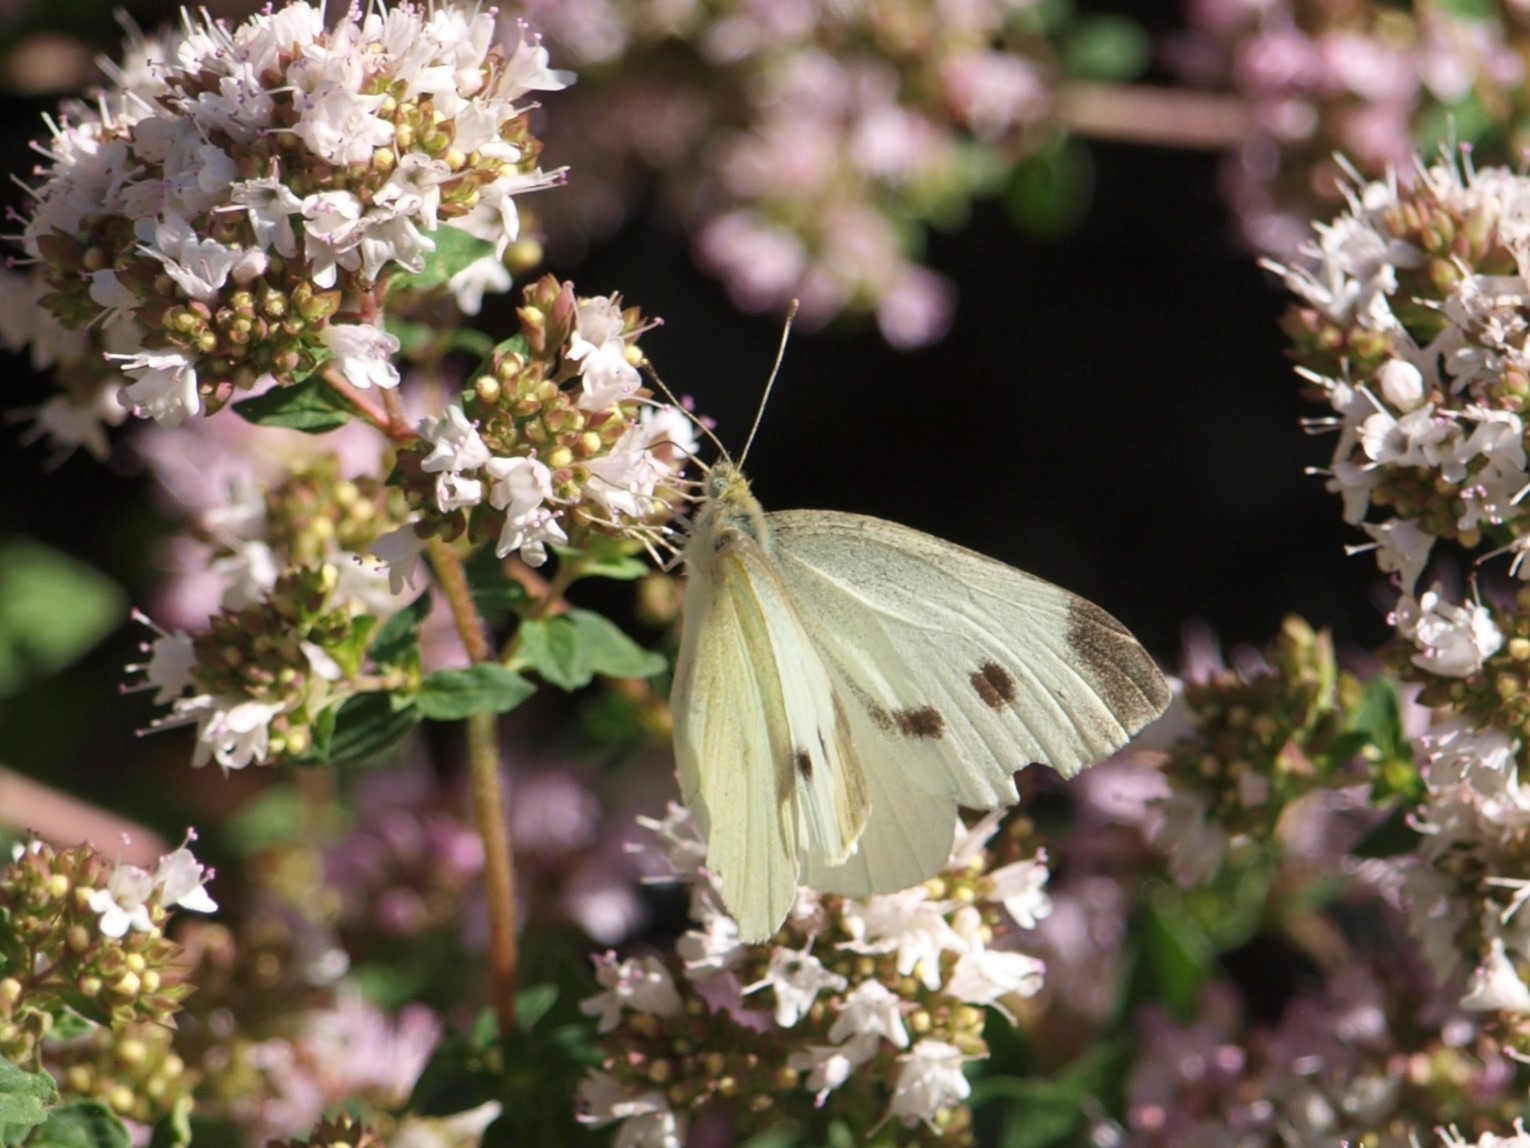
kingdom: Animalia
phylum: Arthropoda
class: Insecta
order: Lepidoptera
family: Pieridae
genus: Pieris
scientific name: Pieris rapae
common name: Lille kålsommerfugl
